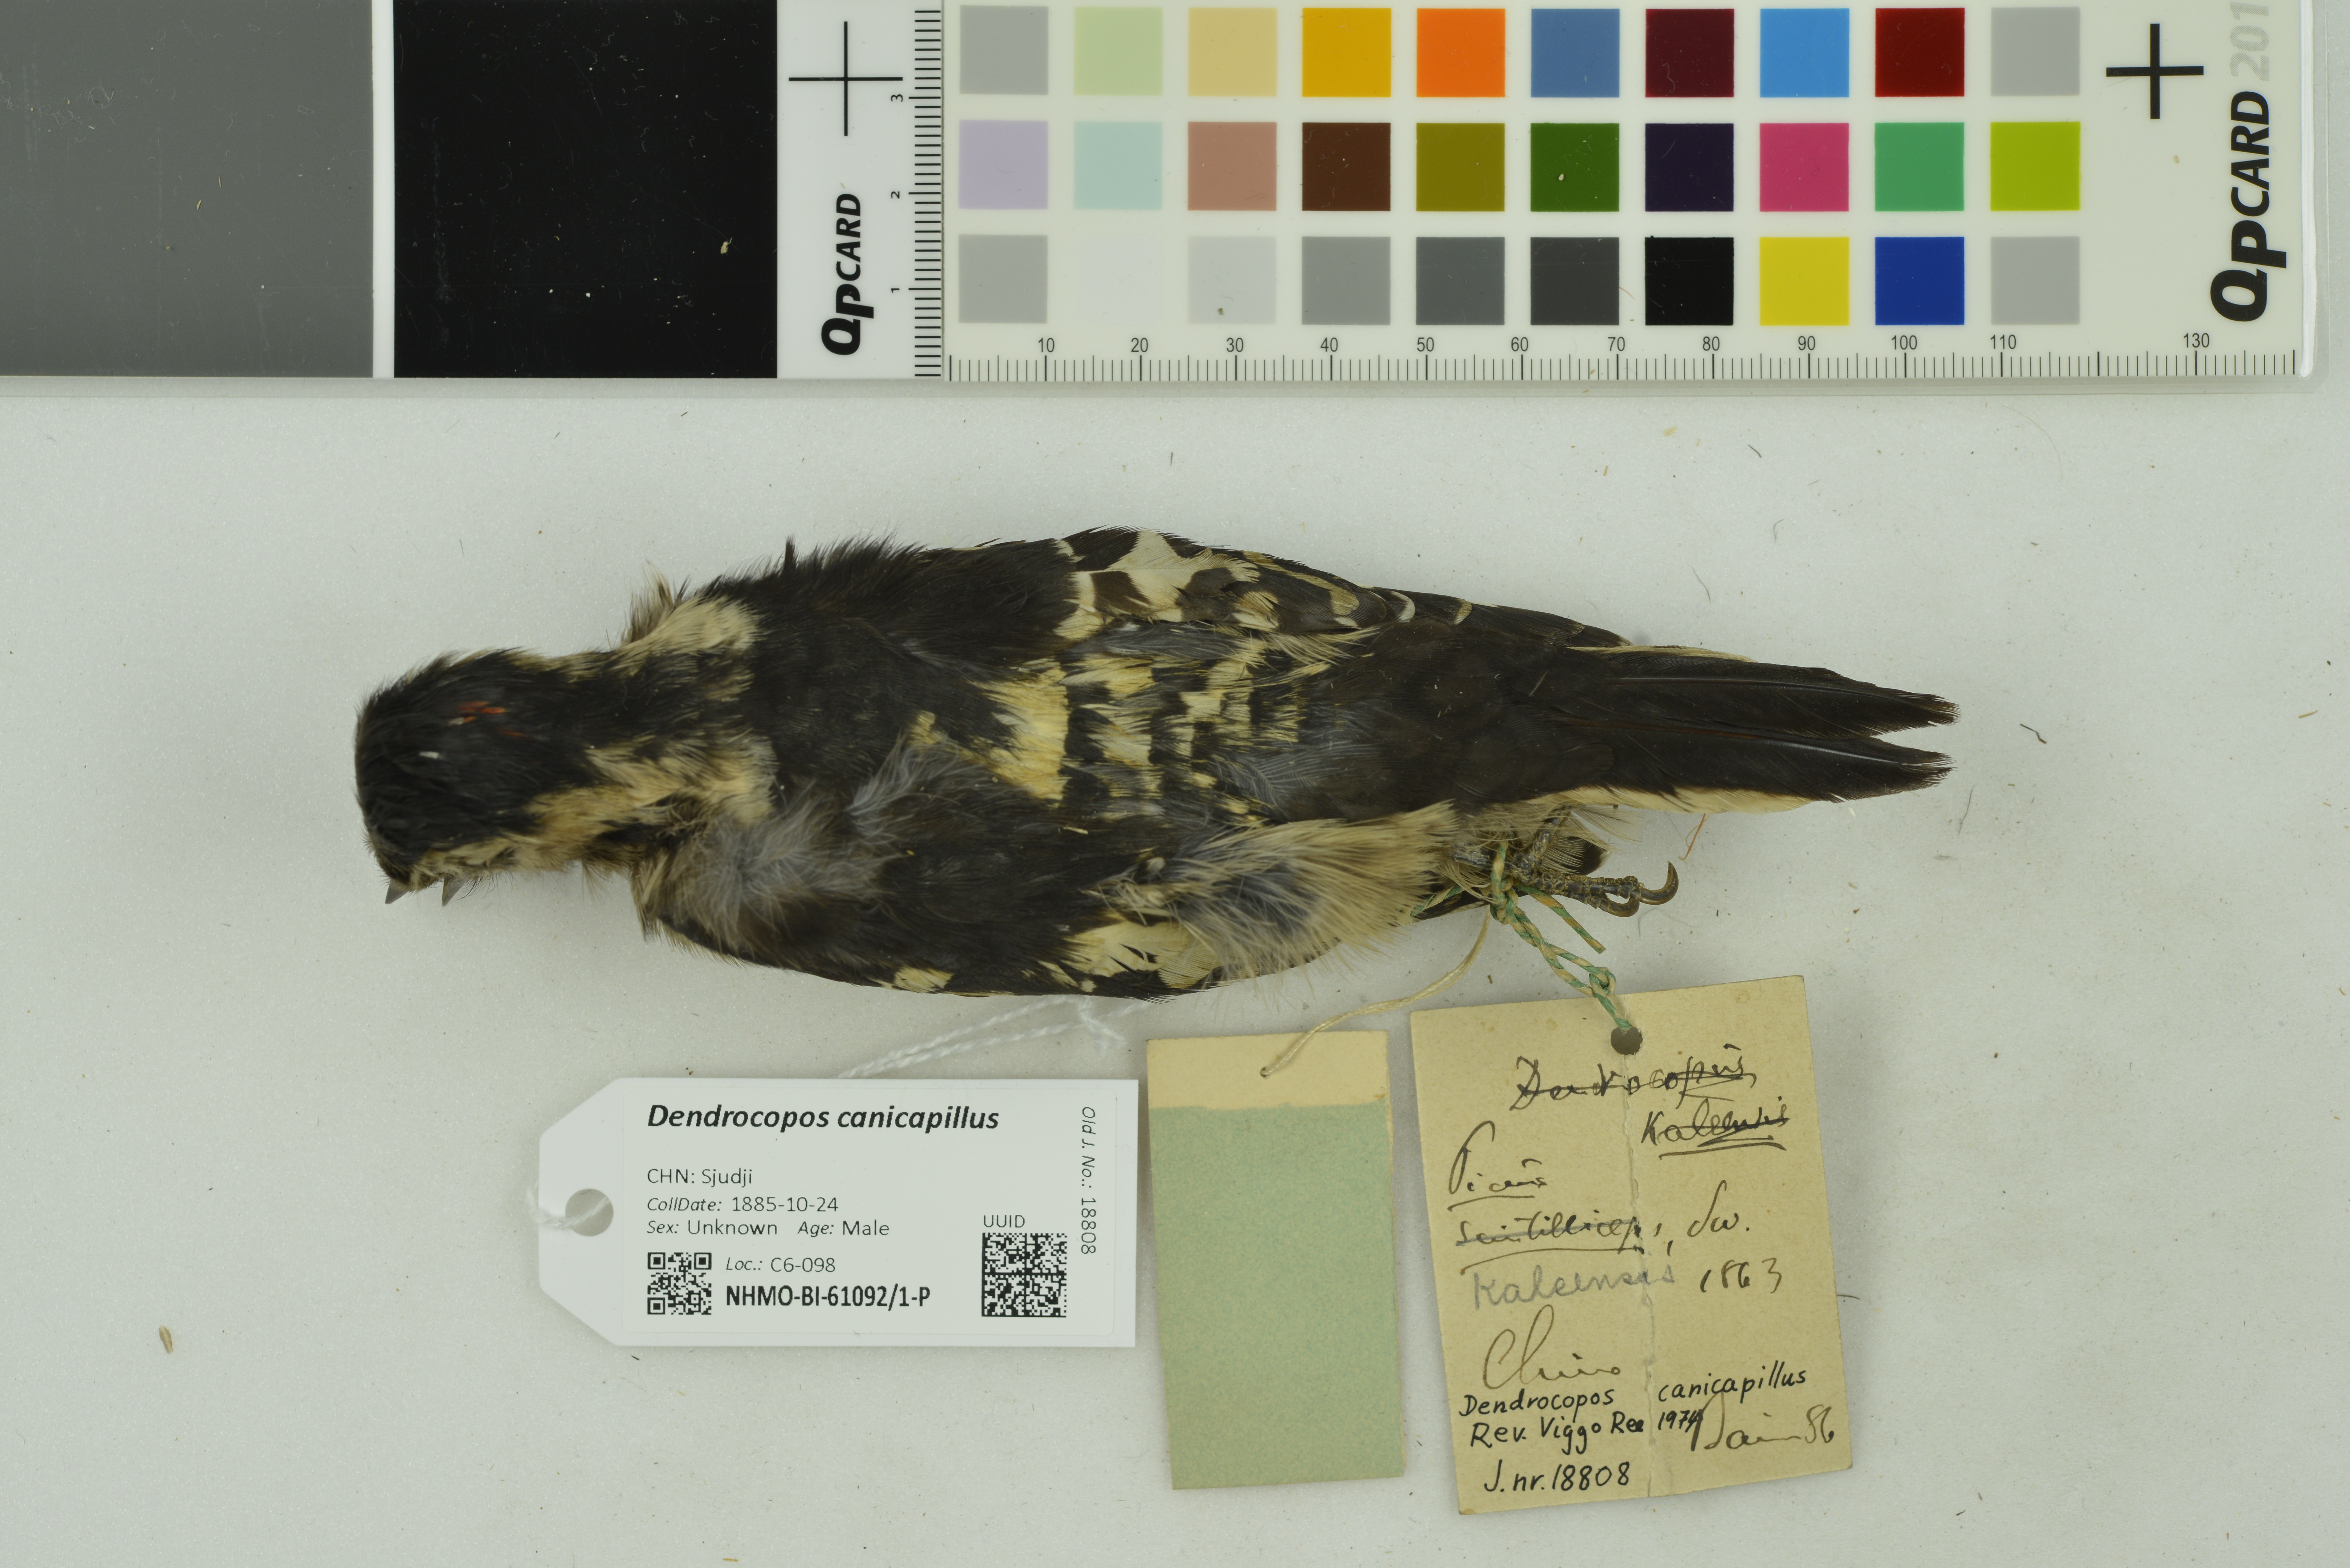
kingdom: Animalia
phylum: Chordata
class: Aves
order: Piciformes
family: Picidae
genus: Yungipicus
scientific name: Yungipicus canicapillus
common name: Grey-capped pygmy woodpecker
